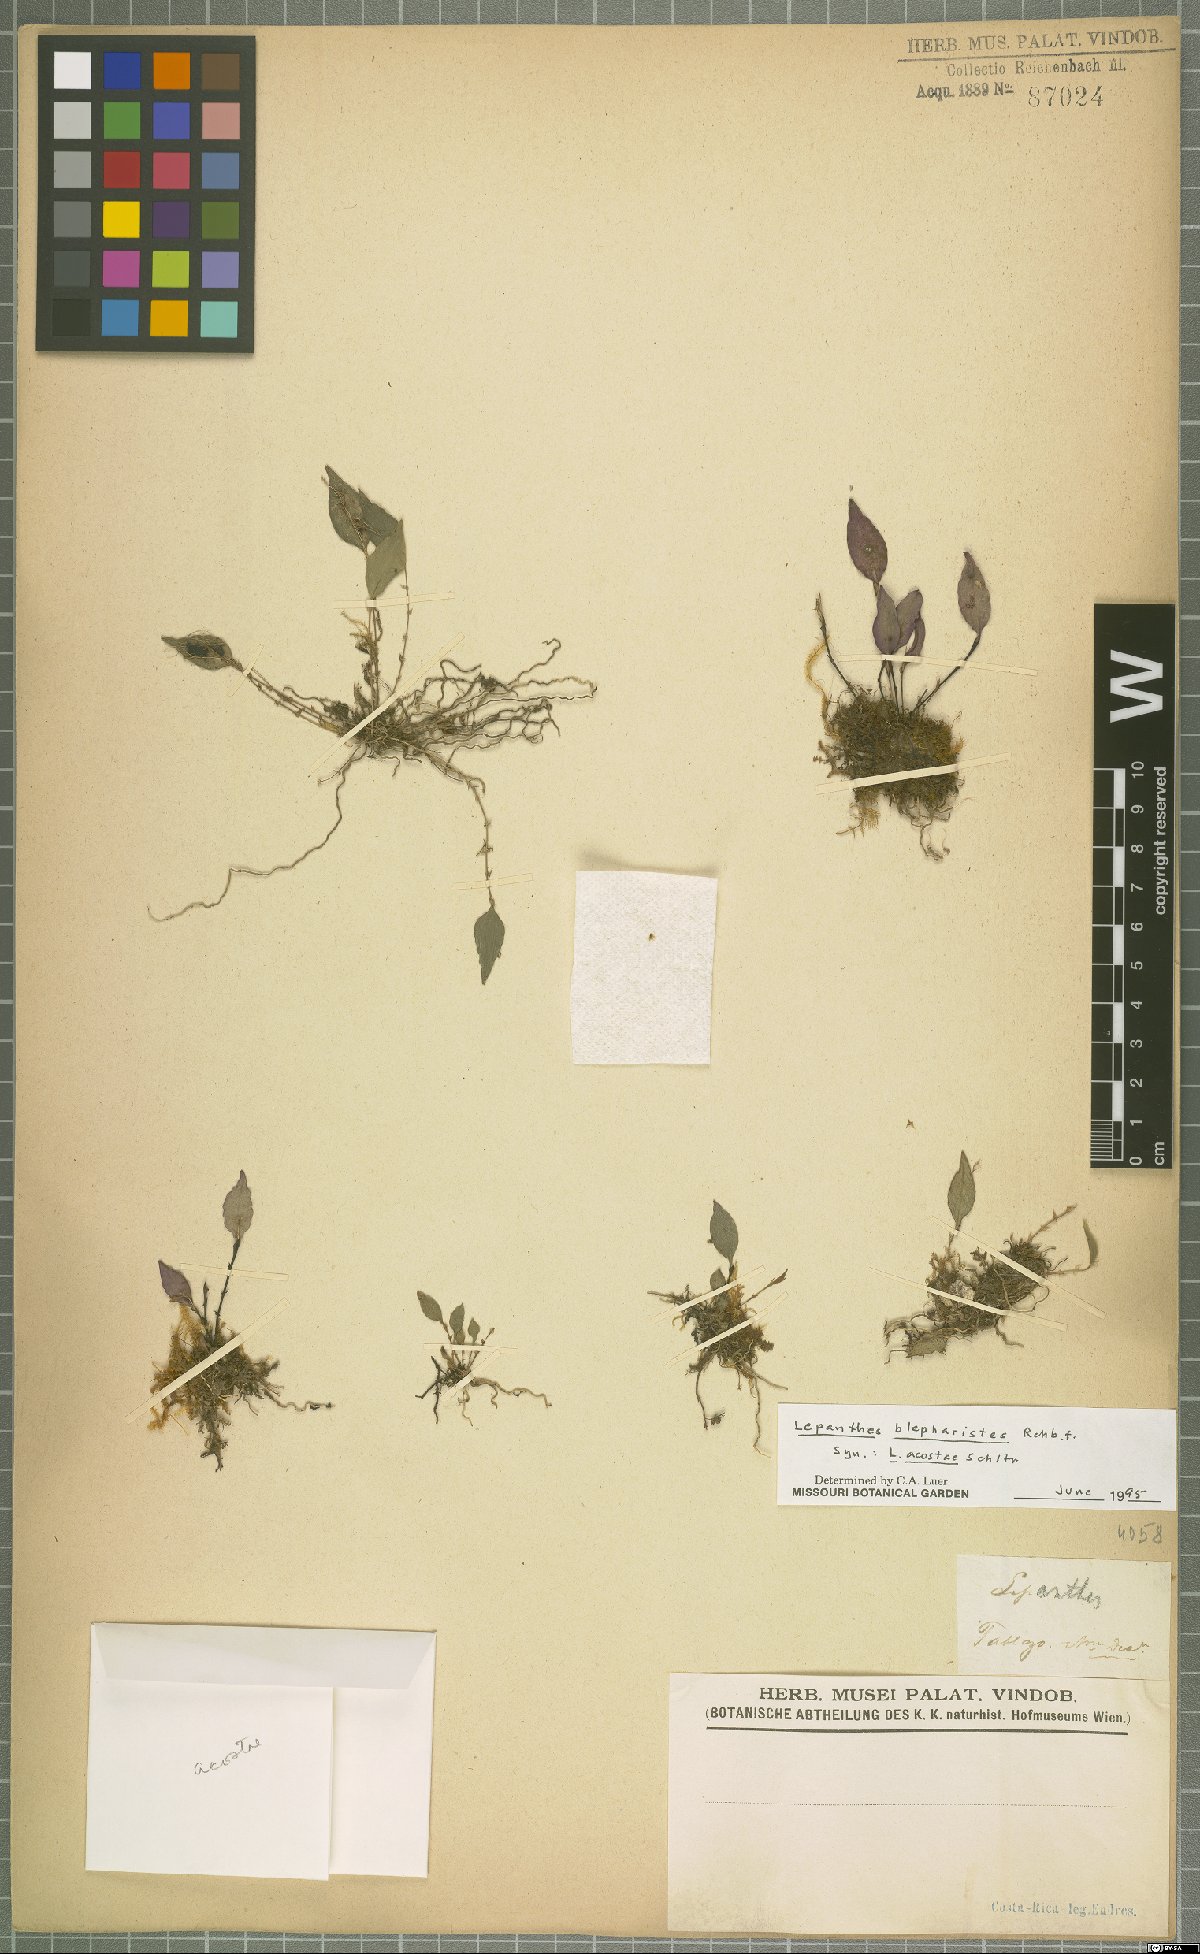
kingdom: Plantae
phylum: Tracheophyta
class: Liliopsida
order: Asparagales
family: Orchidaceae
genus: Lepanthes
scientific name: Lepanthes blepharistes
